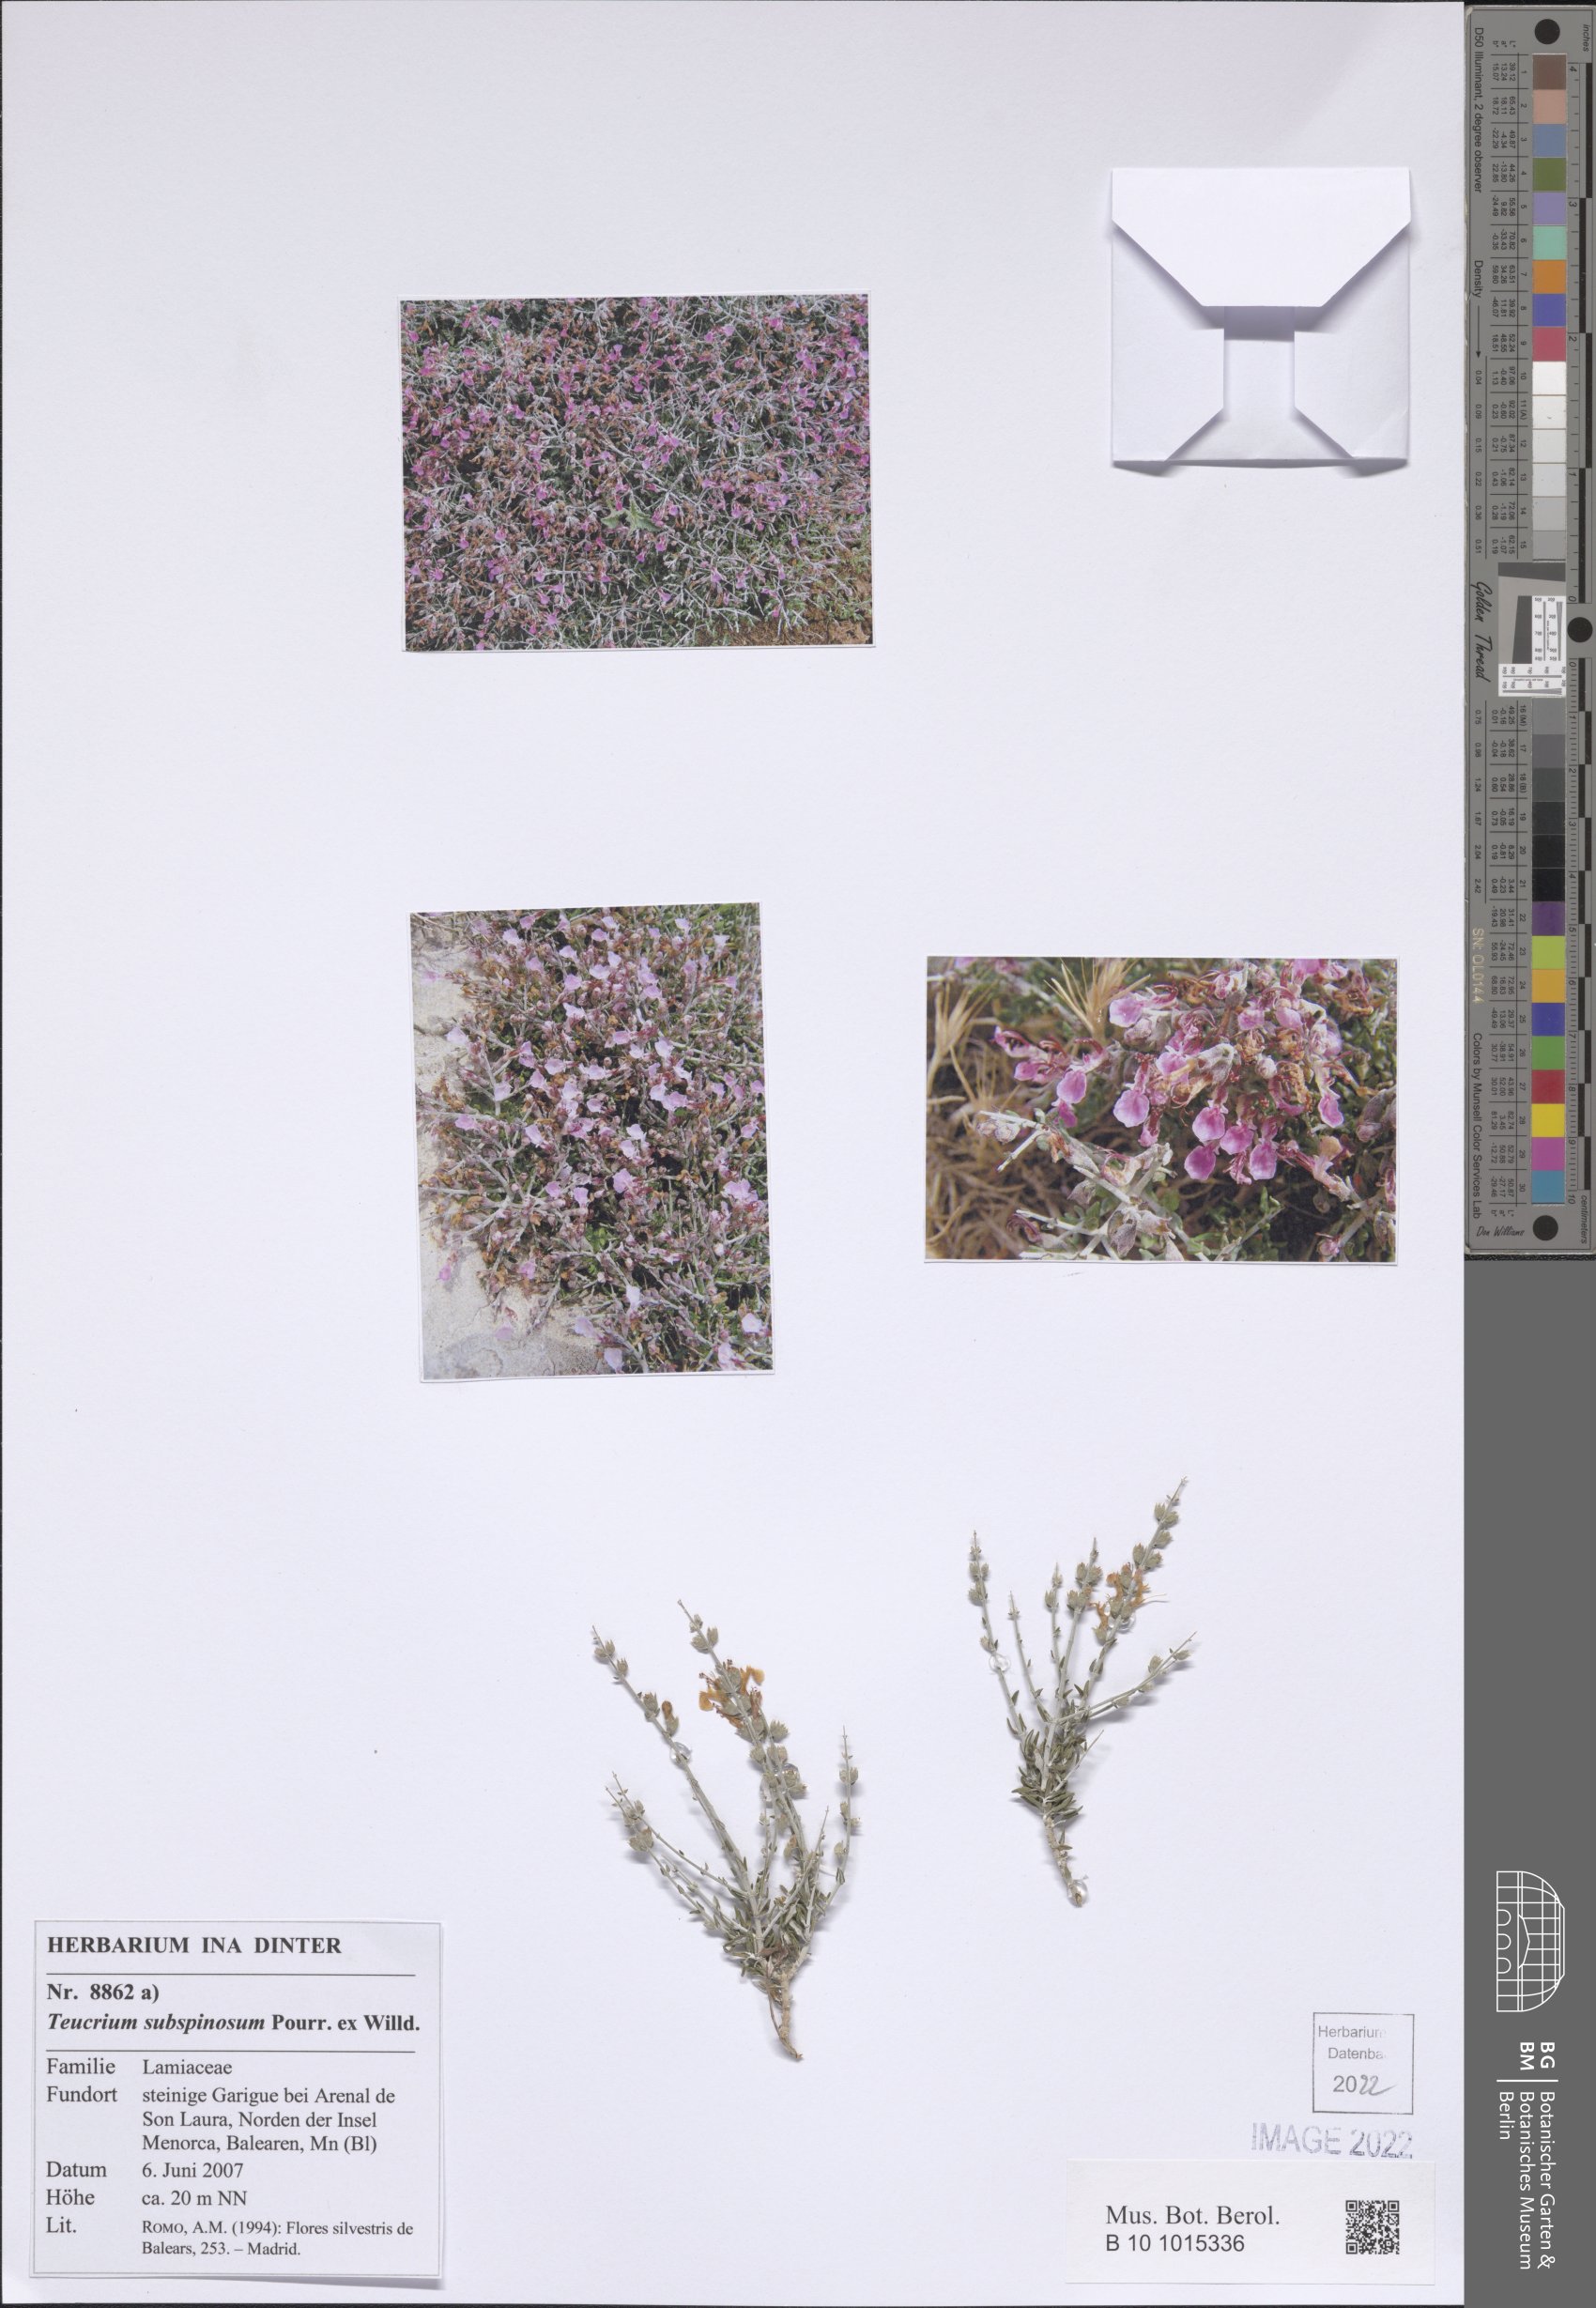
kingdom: Plantae
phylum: Tracheophyta
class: Magnoliopsida
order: Lamiales
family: Lamiaceae
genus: Teucrium
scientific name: Teucrium subspinosum
